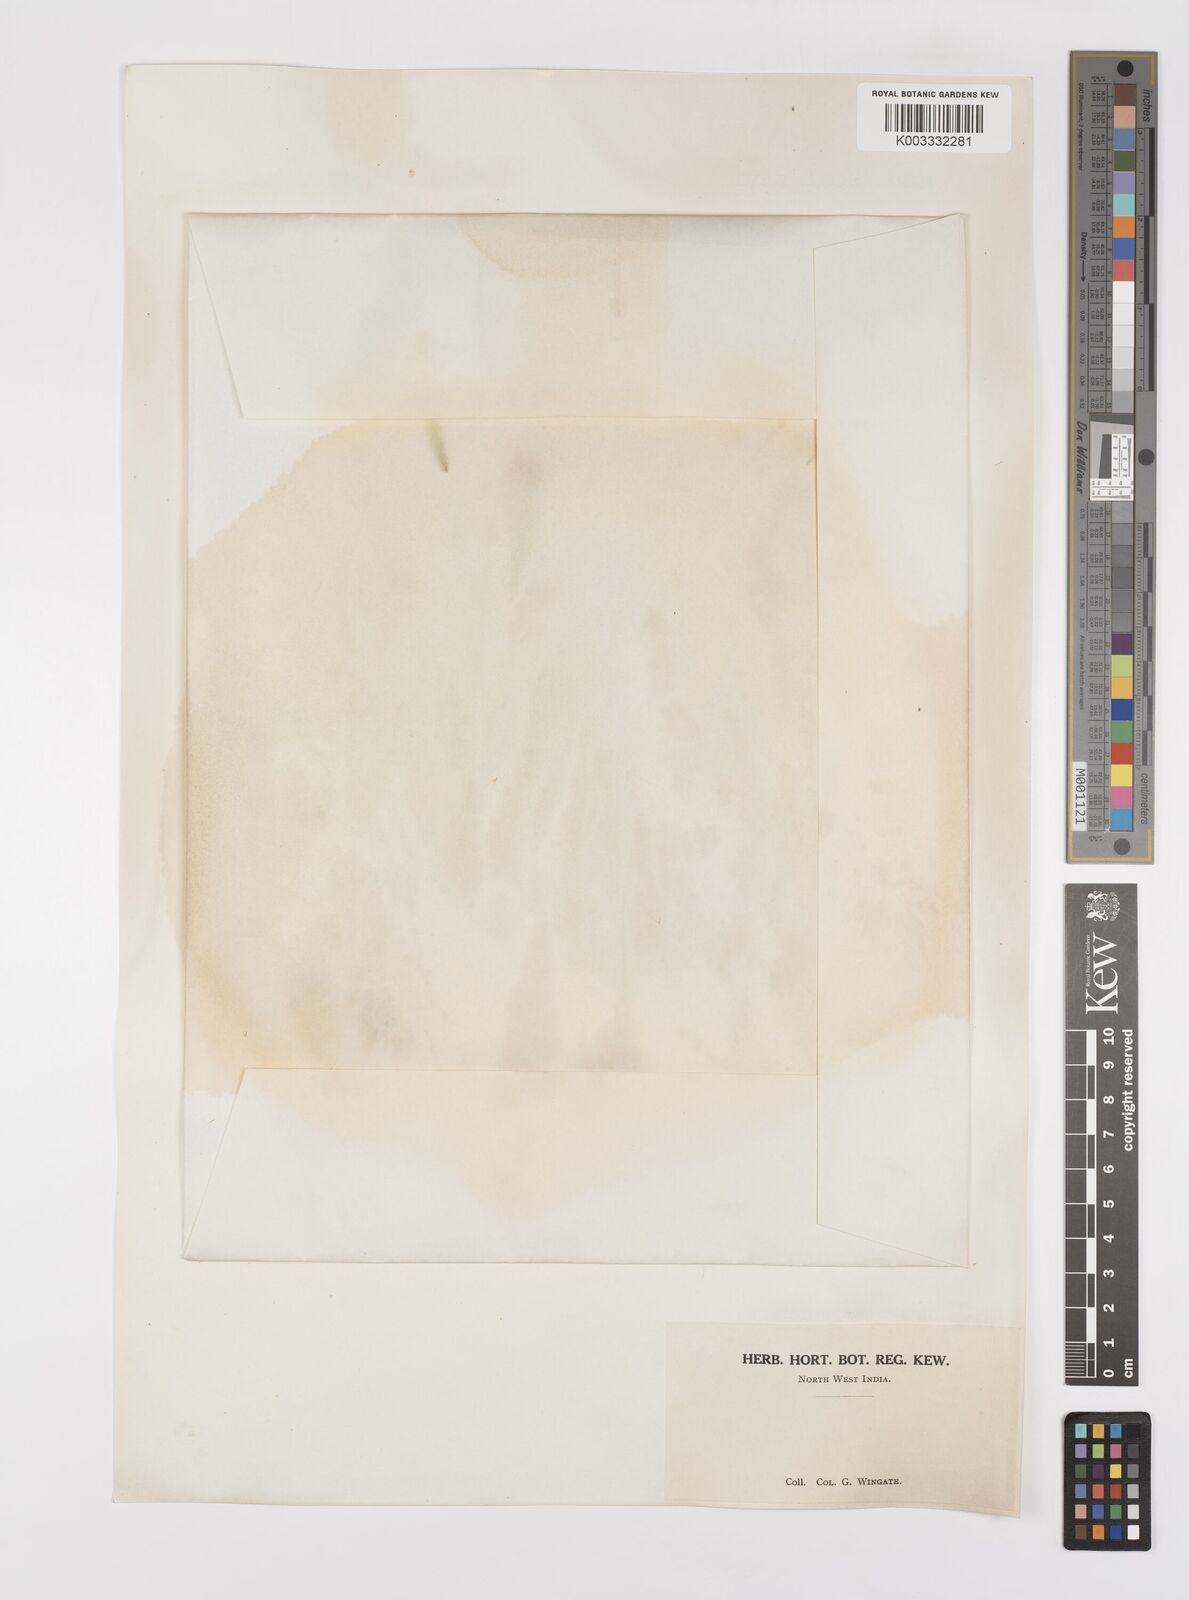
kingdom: Plantae
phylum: Tracheophyta
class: Liliopsida
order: Poales
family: Poaceae
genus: Polypogon
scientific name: Polypogon monspeliensis
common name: Annual rabbitsfoot grass
